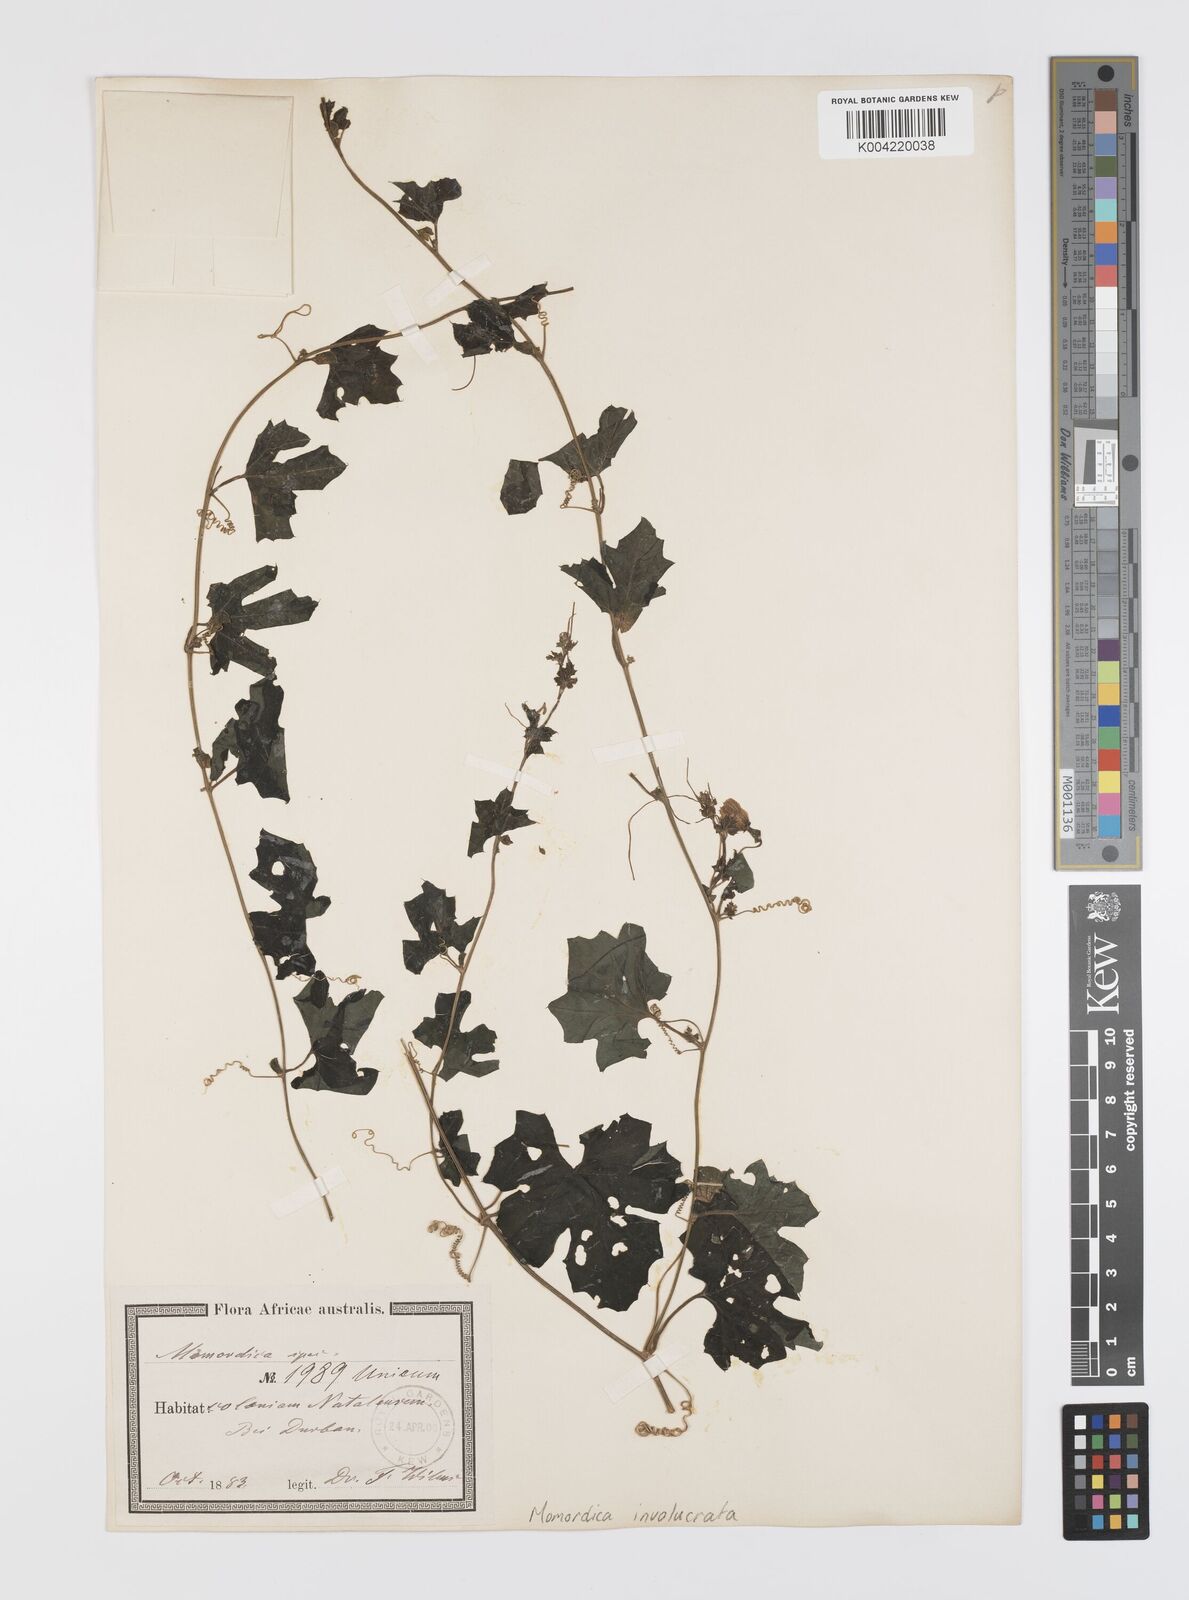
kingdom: Plantae
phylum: Tracheophyta
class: Magnoliopsida
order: Cucurbitales
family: Cucurbitaceae
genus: Momordica
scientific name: Momordica balsamina
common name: Southern balsampear
